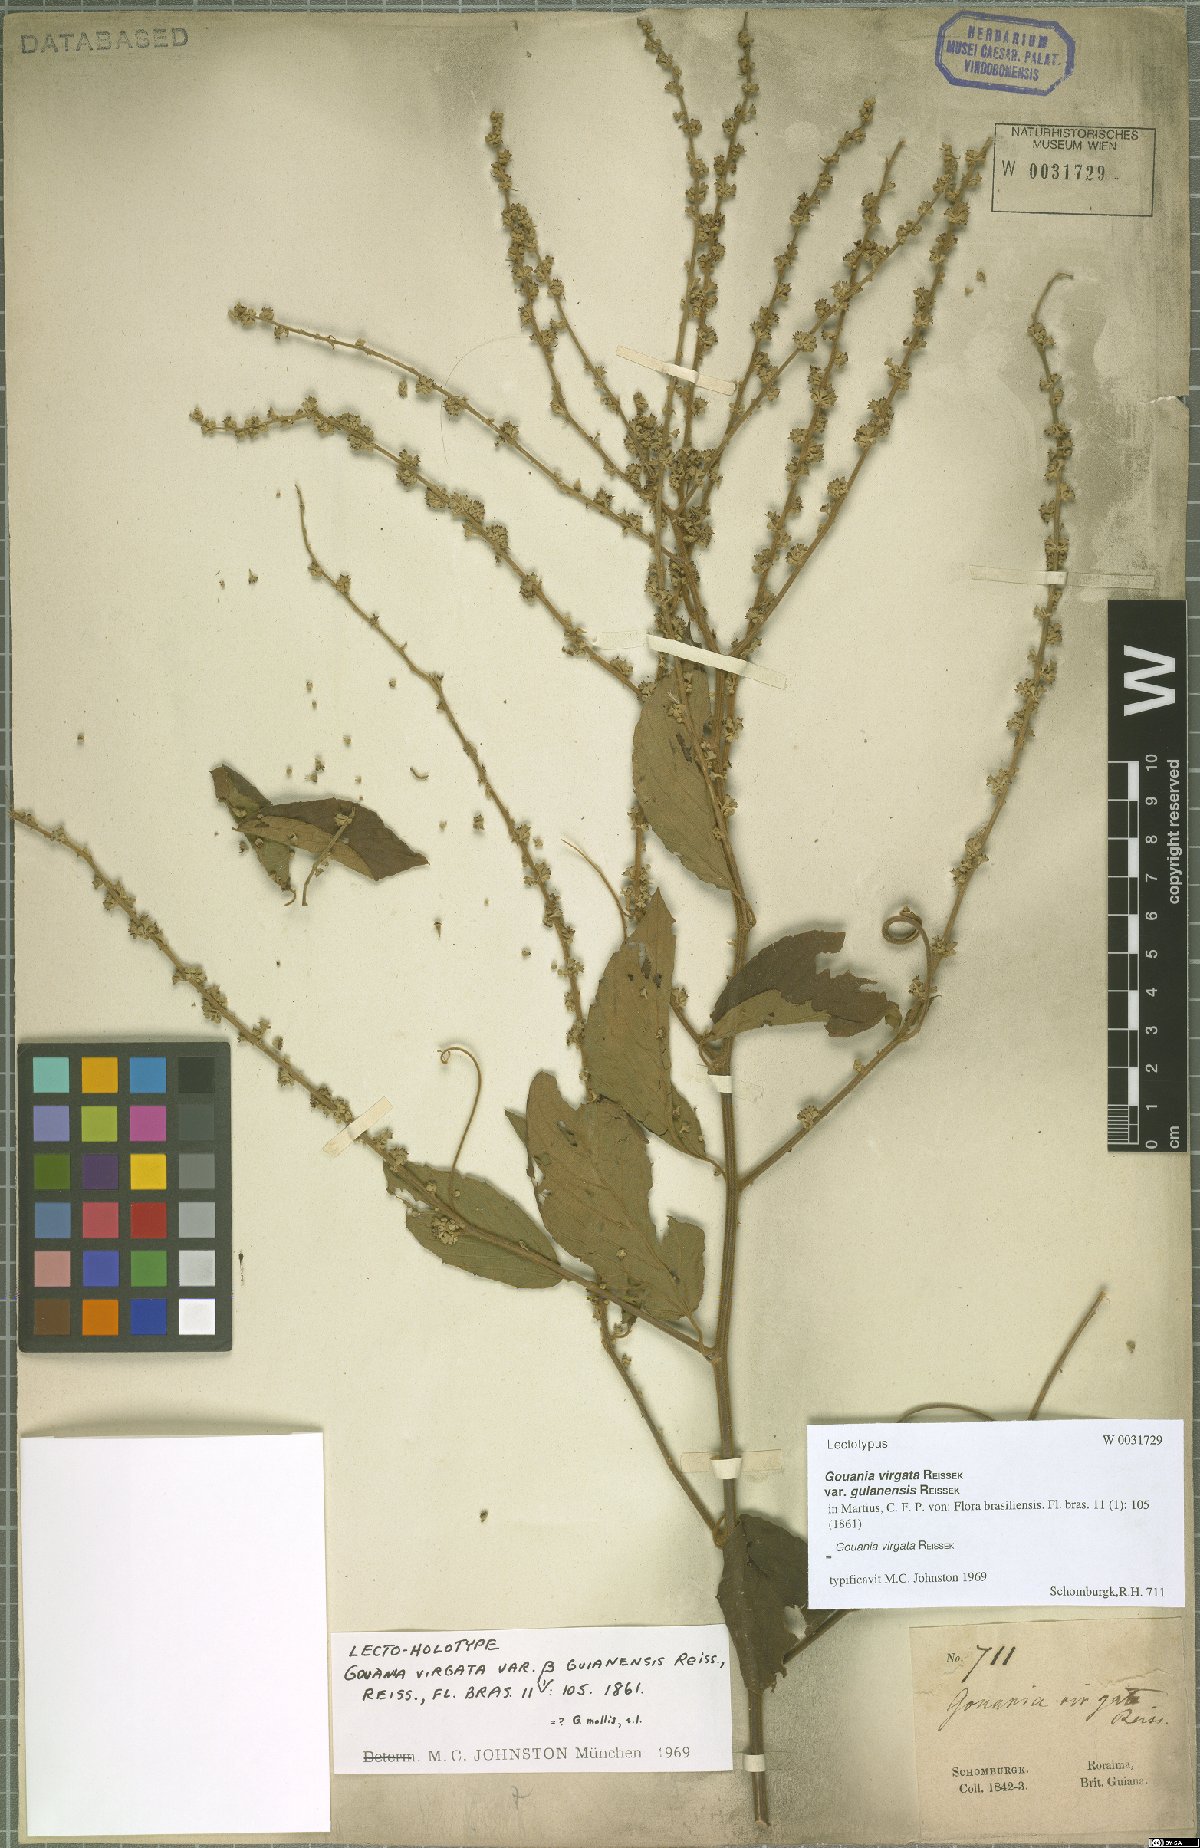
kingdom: Plantae
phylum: Tracheophyta
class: Magnoliopsida
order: Rosales
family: Rhamnaceae
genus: Gouania
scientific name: Gouania lupuloides
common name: Chewstick
